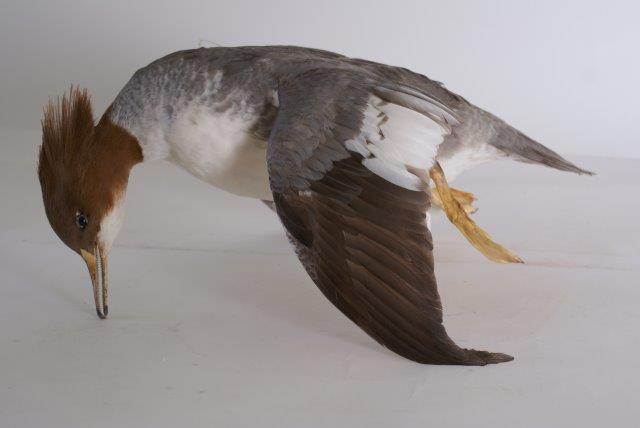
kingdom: Animalia
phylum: Chordata
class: Aves
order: Anseriformes
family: Anatidae
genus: Mergus
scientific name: Mergus merganser
